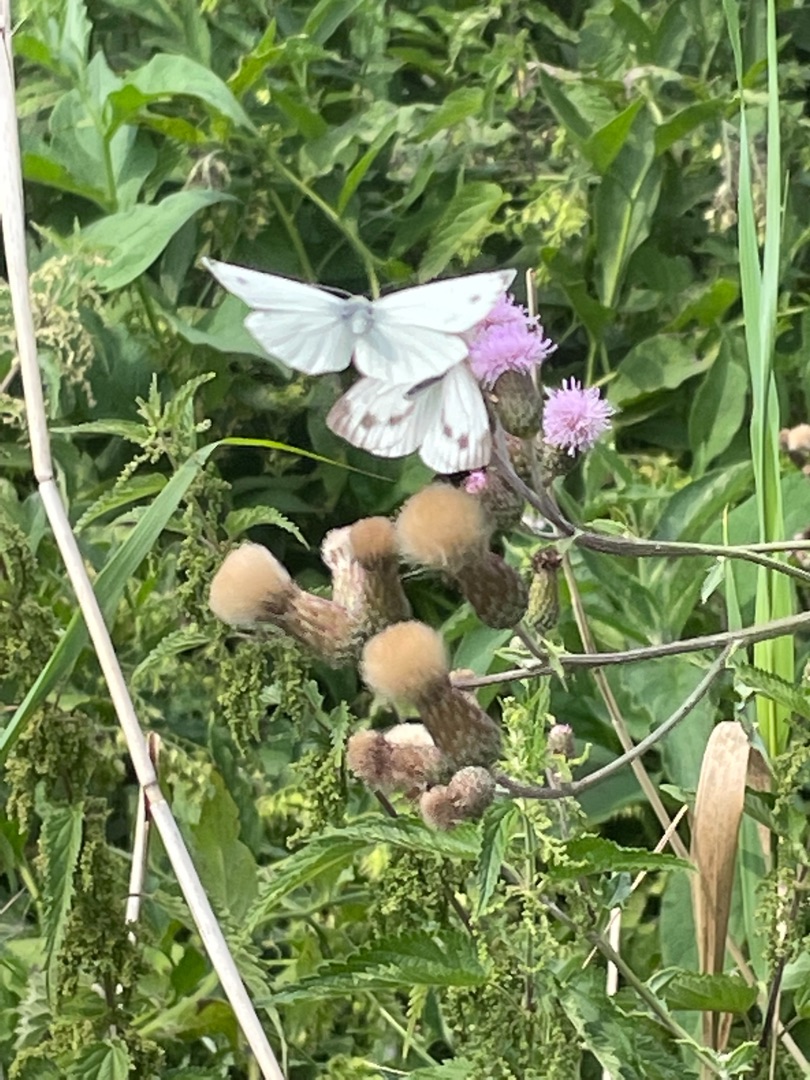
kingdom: Animalia
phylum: Arthropoda
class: Insecta
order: Lepidoptera
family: Pieridae
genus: Pieris
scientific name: Pieris napi
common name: Grønåret kålsommerfugl
